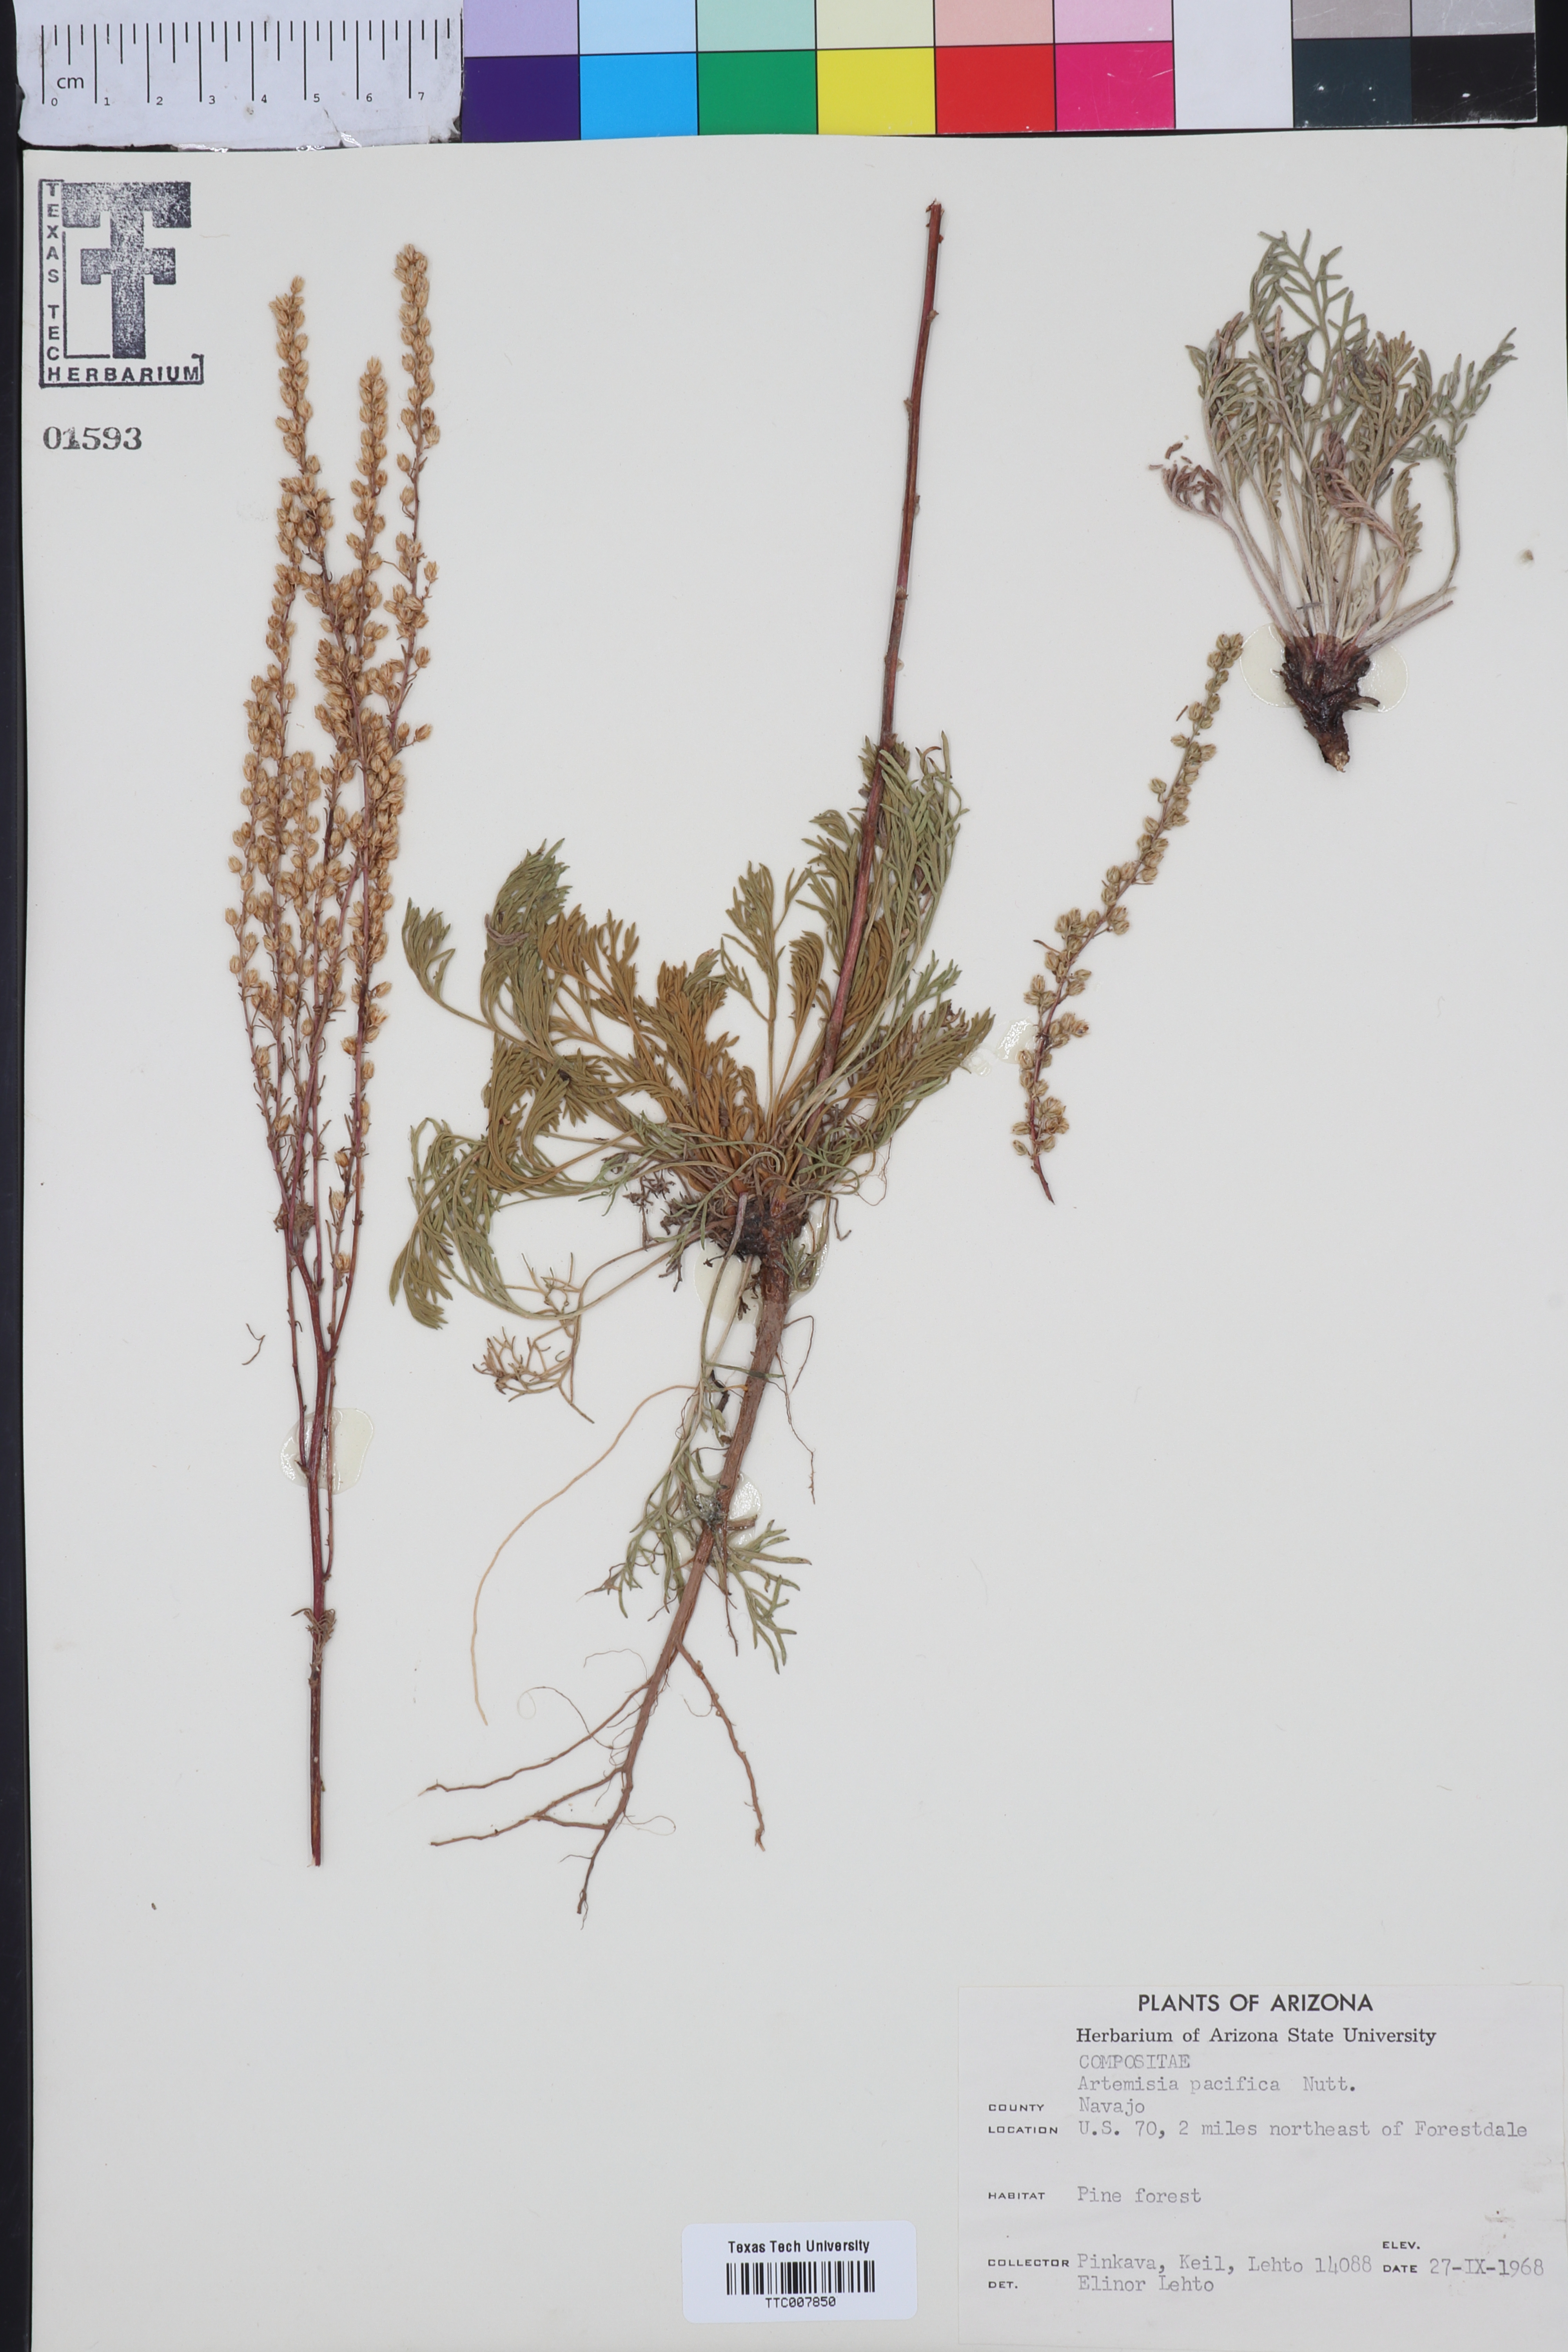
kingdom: Plantae
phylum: Tracheophyta
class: Magnoliopsida
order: Asterales
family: Asteraceae
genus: Artemisia
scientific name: Artemisia campestris
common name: Field wormwood
